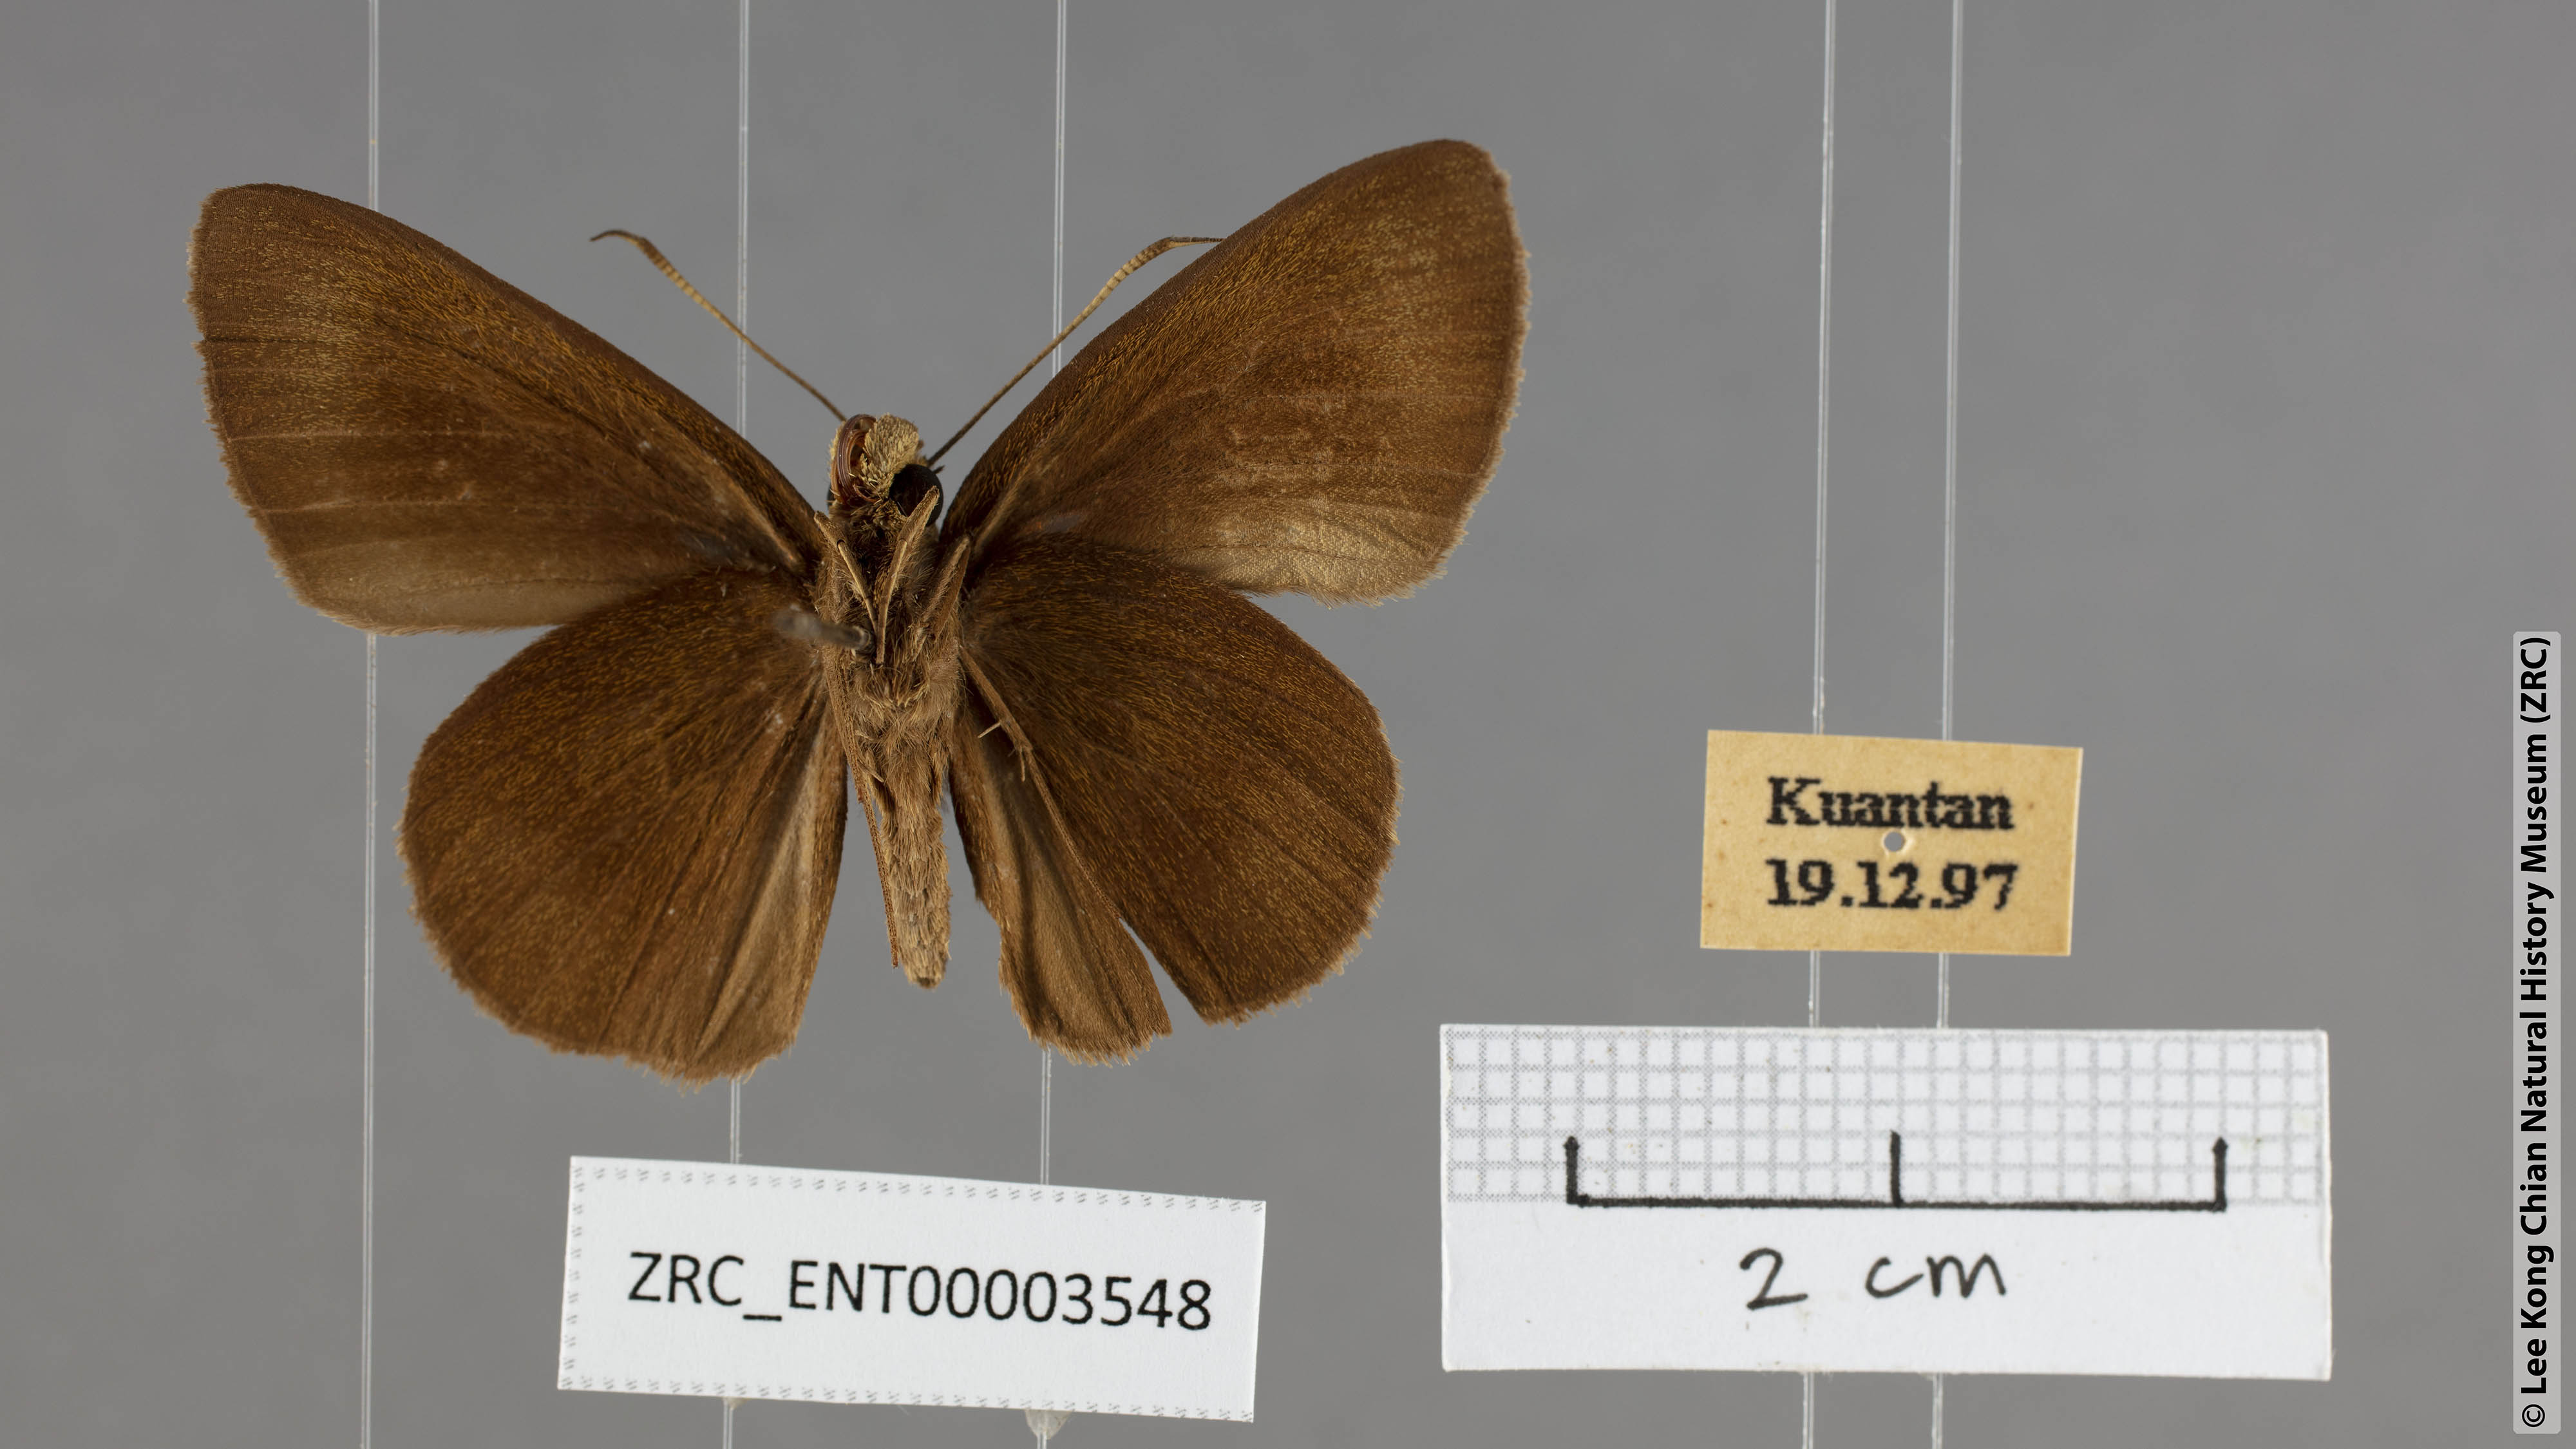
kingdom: Animalia
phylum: Arthropoda
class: Insecta
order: Lepidoptera
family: Hesperiidae
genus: Stimula
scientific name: Stimula swinhoei
